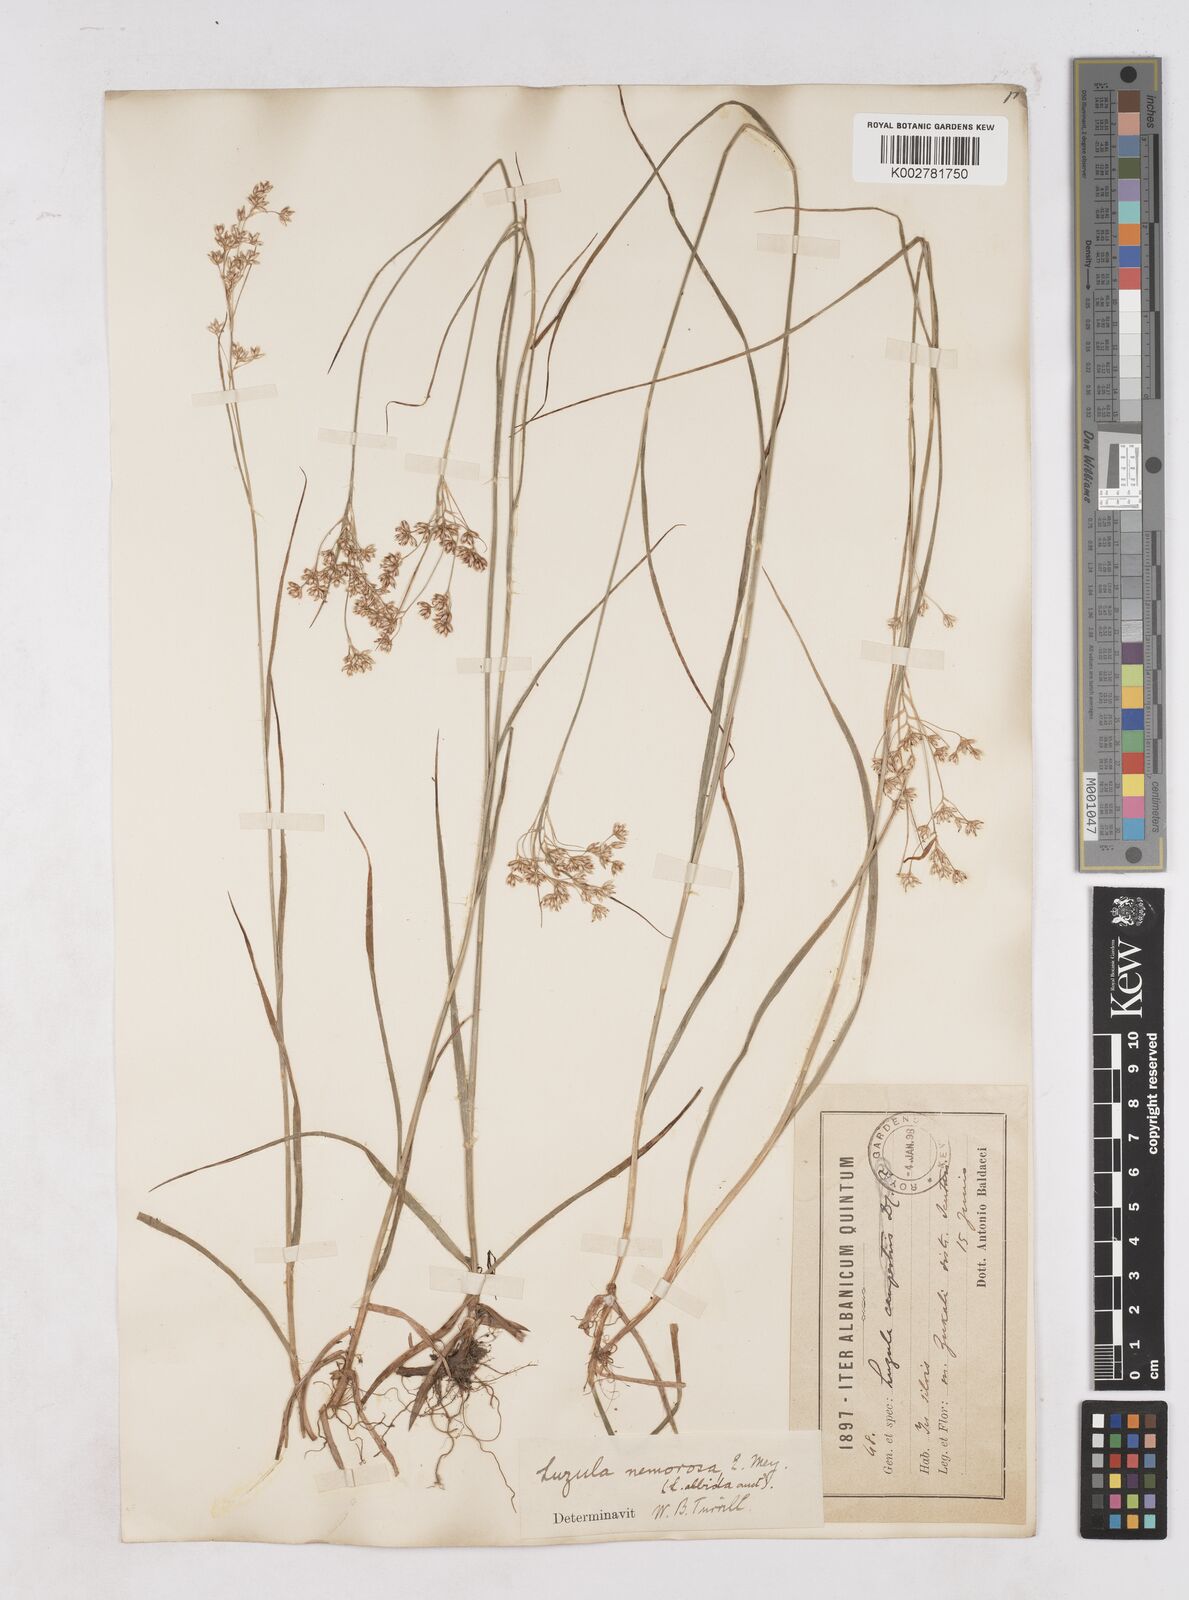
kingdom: Plantae
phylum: Tracheophyta
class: Liliopsida
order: Poales
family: Juncaceae
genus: Luzula
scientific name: Luzula luzuloides
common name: White wood-rush
